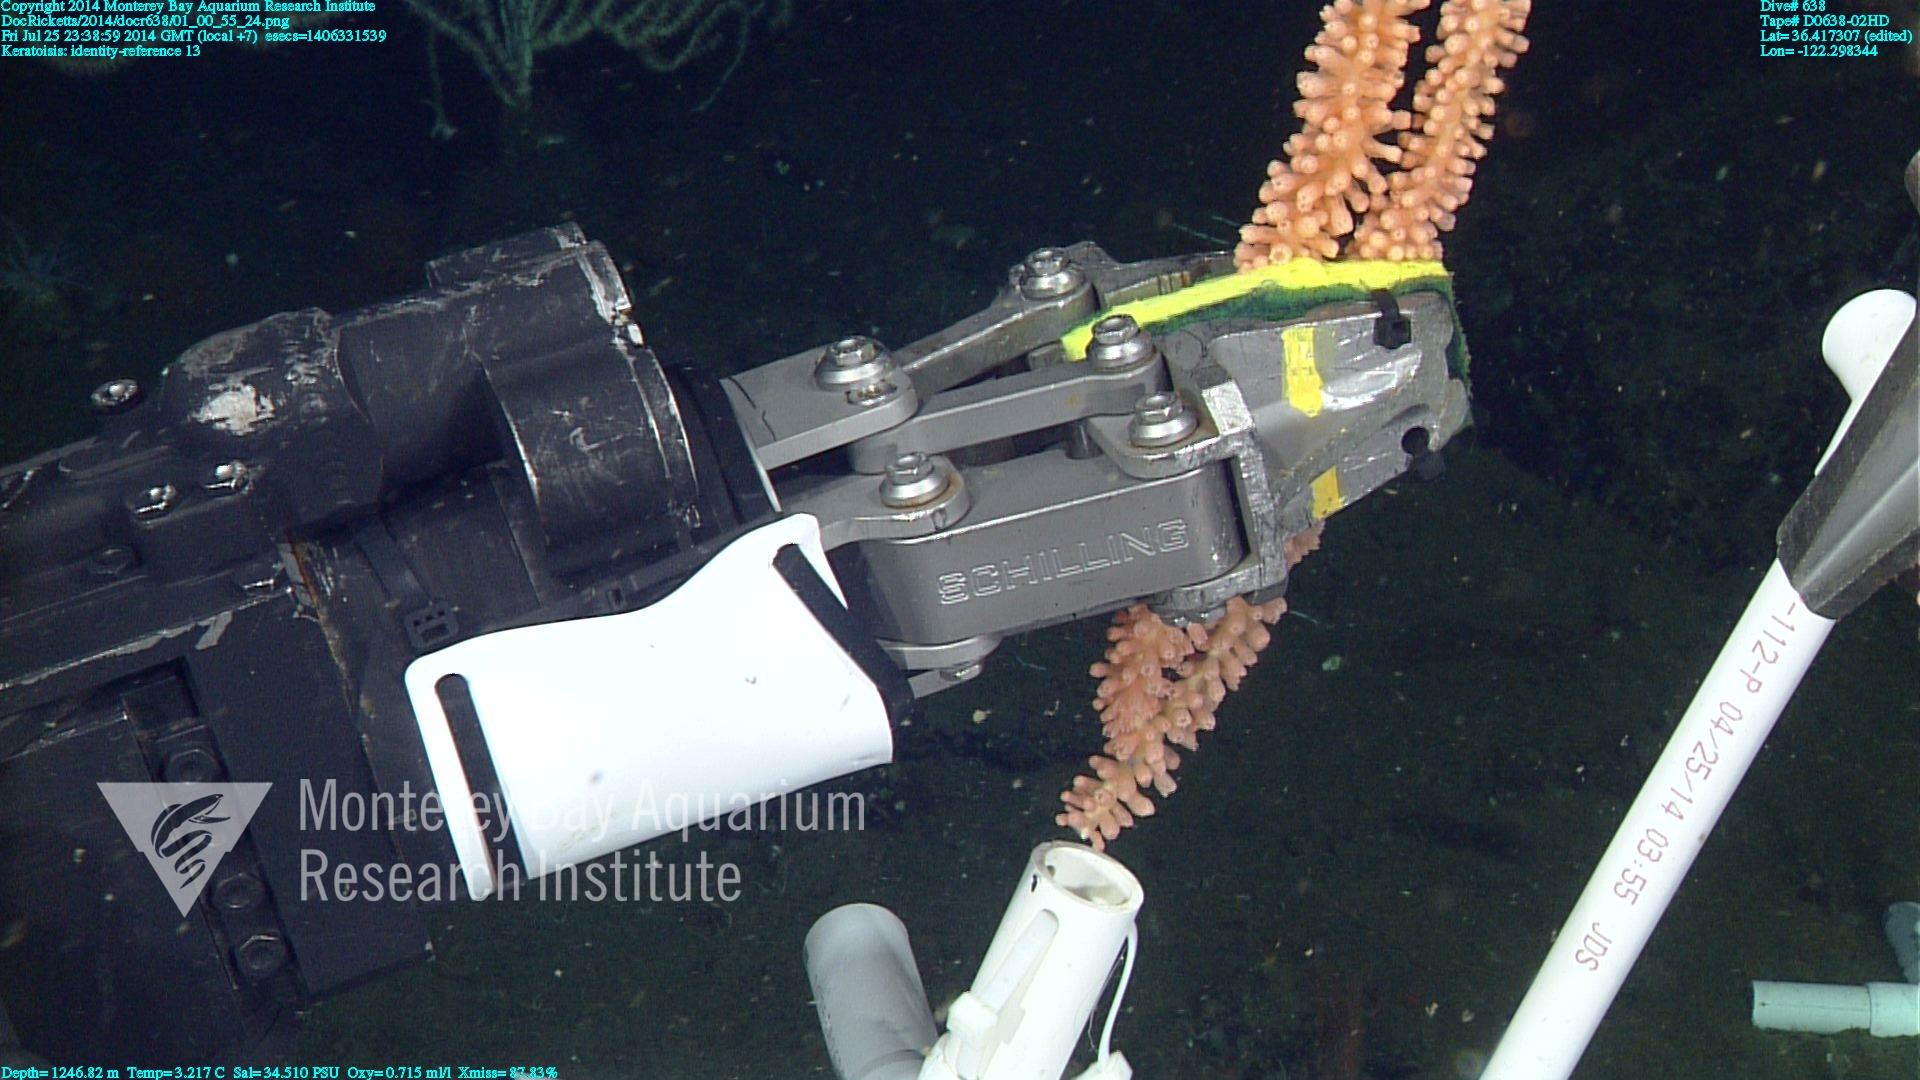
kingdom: Animalia
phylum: Cnidaria
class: Anthozoa
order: Scleralcyonacea
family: Keratoisididae
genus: Keratoisis
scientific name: Keratoisis
